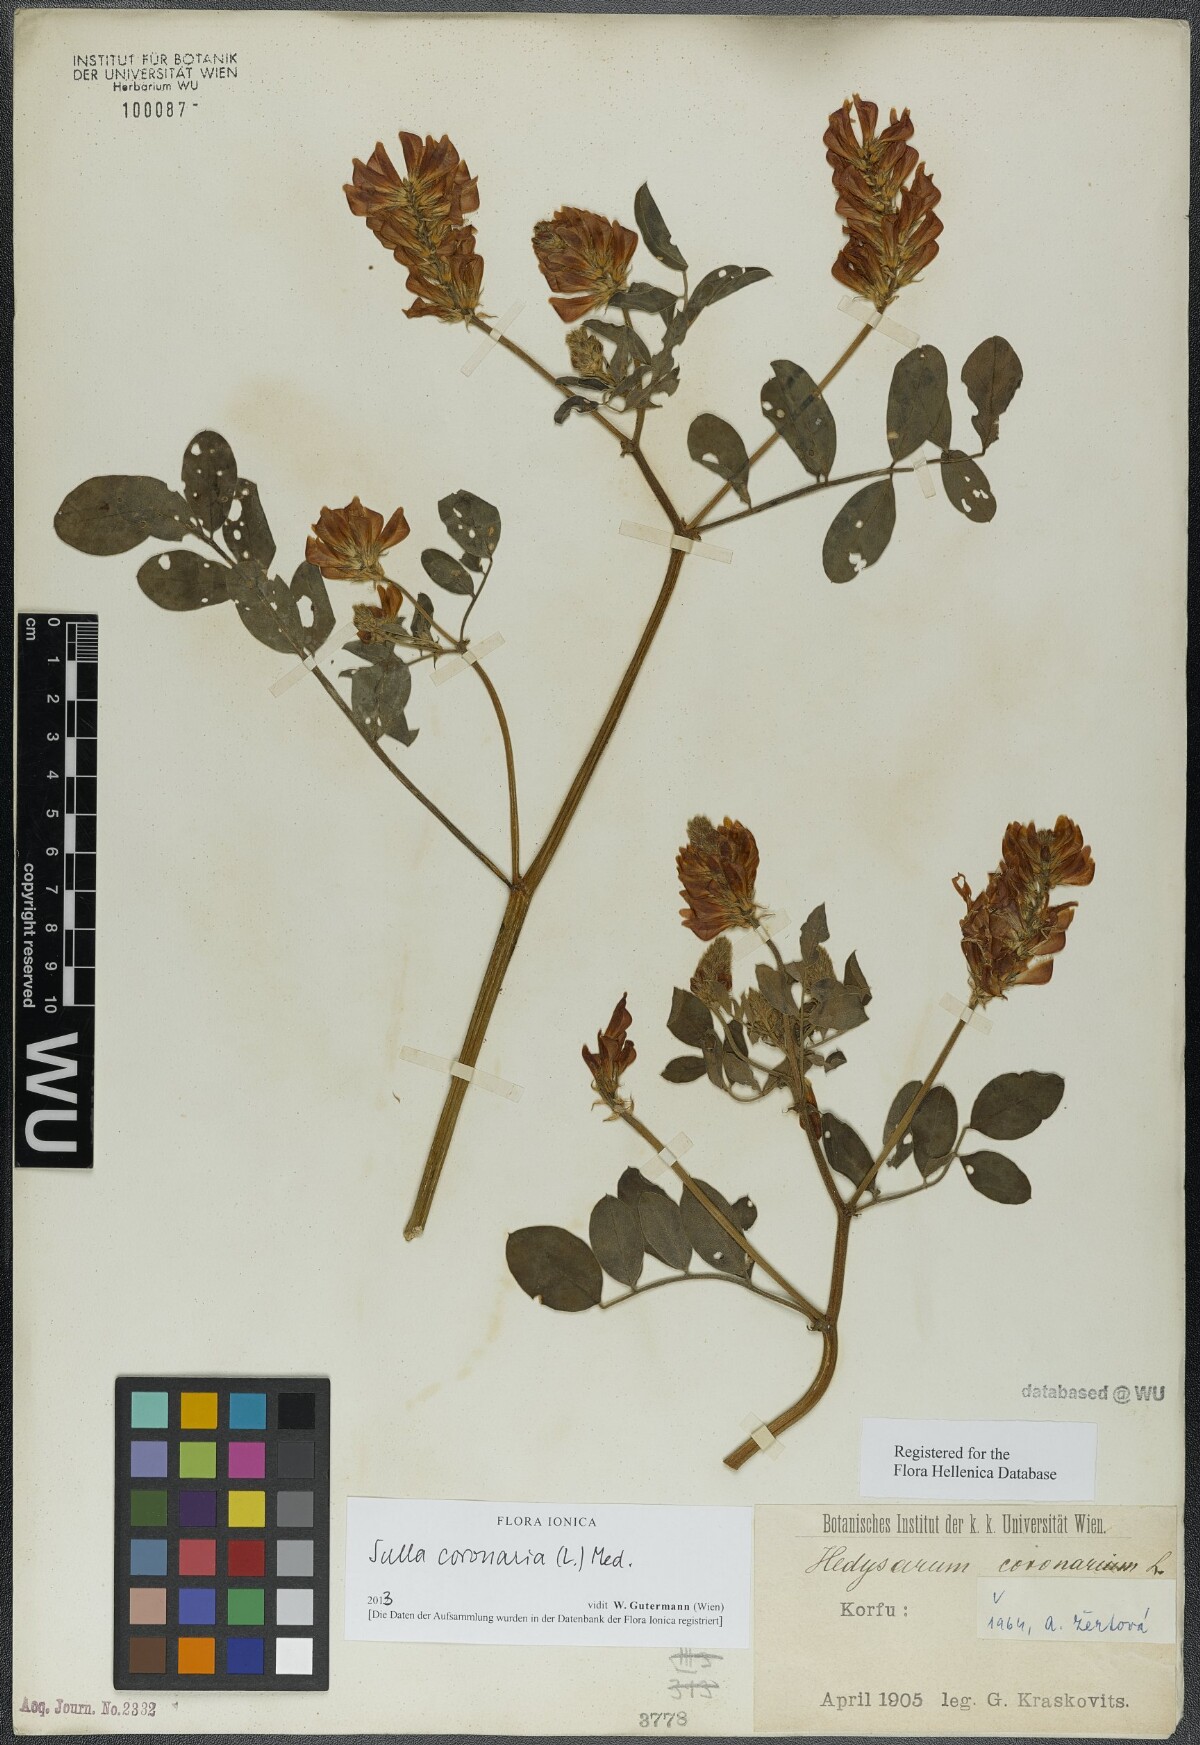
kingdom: Plantae
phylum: Tracheophyta
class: Magnoliopsida
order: Fabales
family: Fabaceae
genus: Sulla
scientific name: Sulla coronaria
